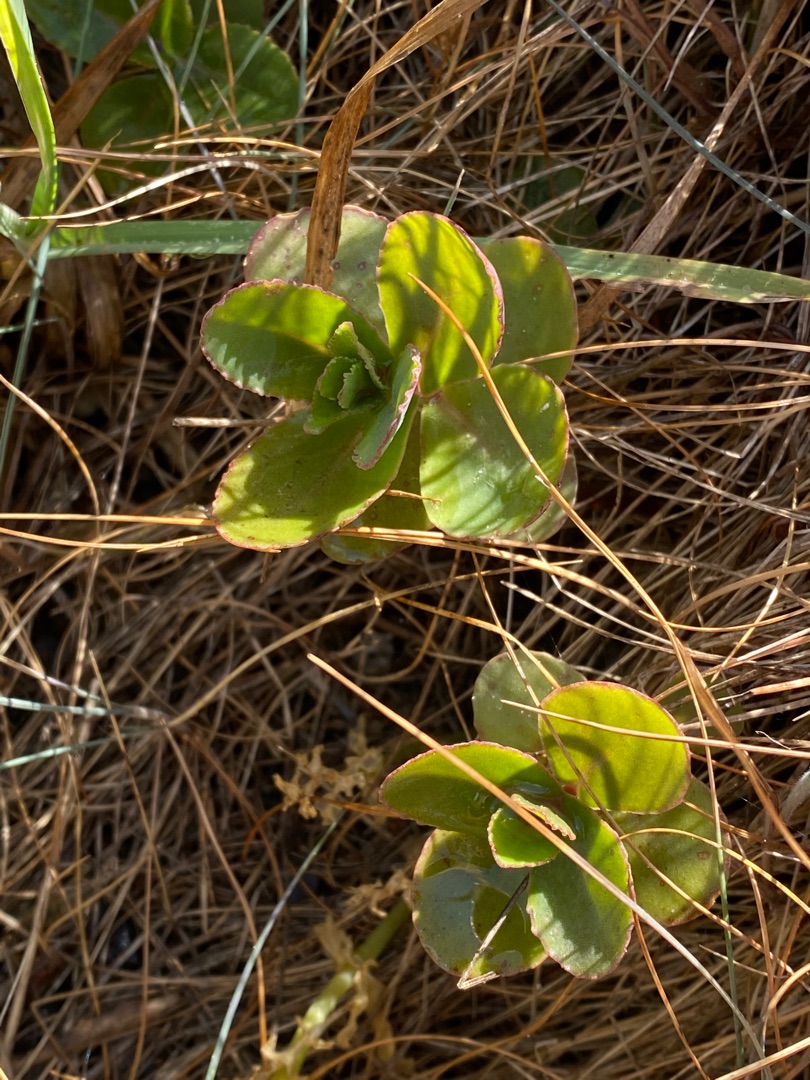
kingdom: Plantae
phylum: Tracheophyta
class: Magnoliopsida
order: Saxifragales
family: Crassulaceae
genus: Hylotelephium
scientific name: Hylotelephium maximum
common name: Almindelig sankthansurt
